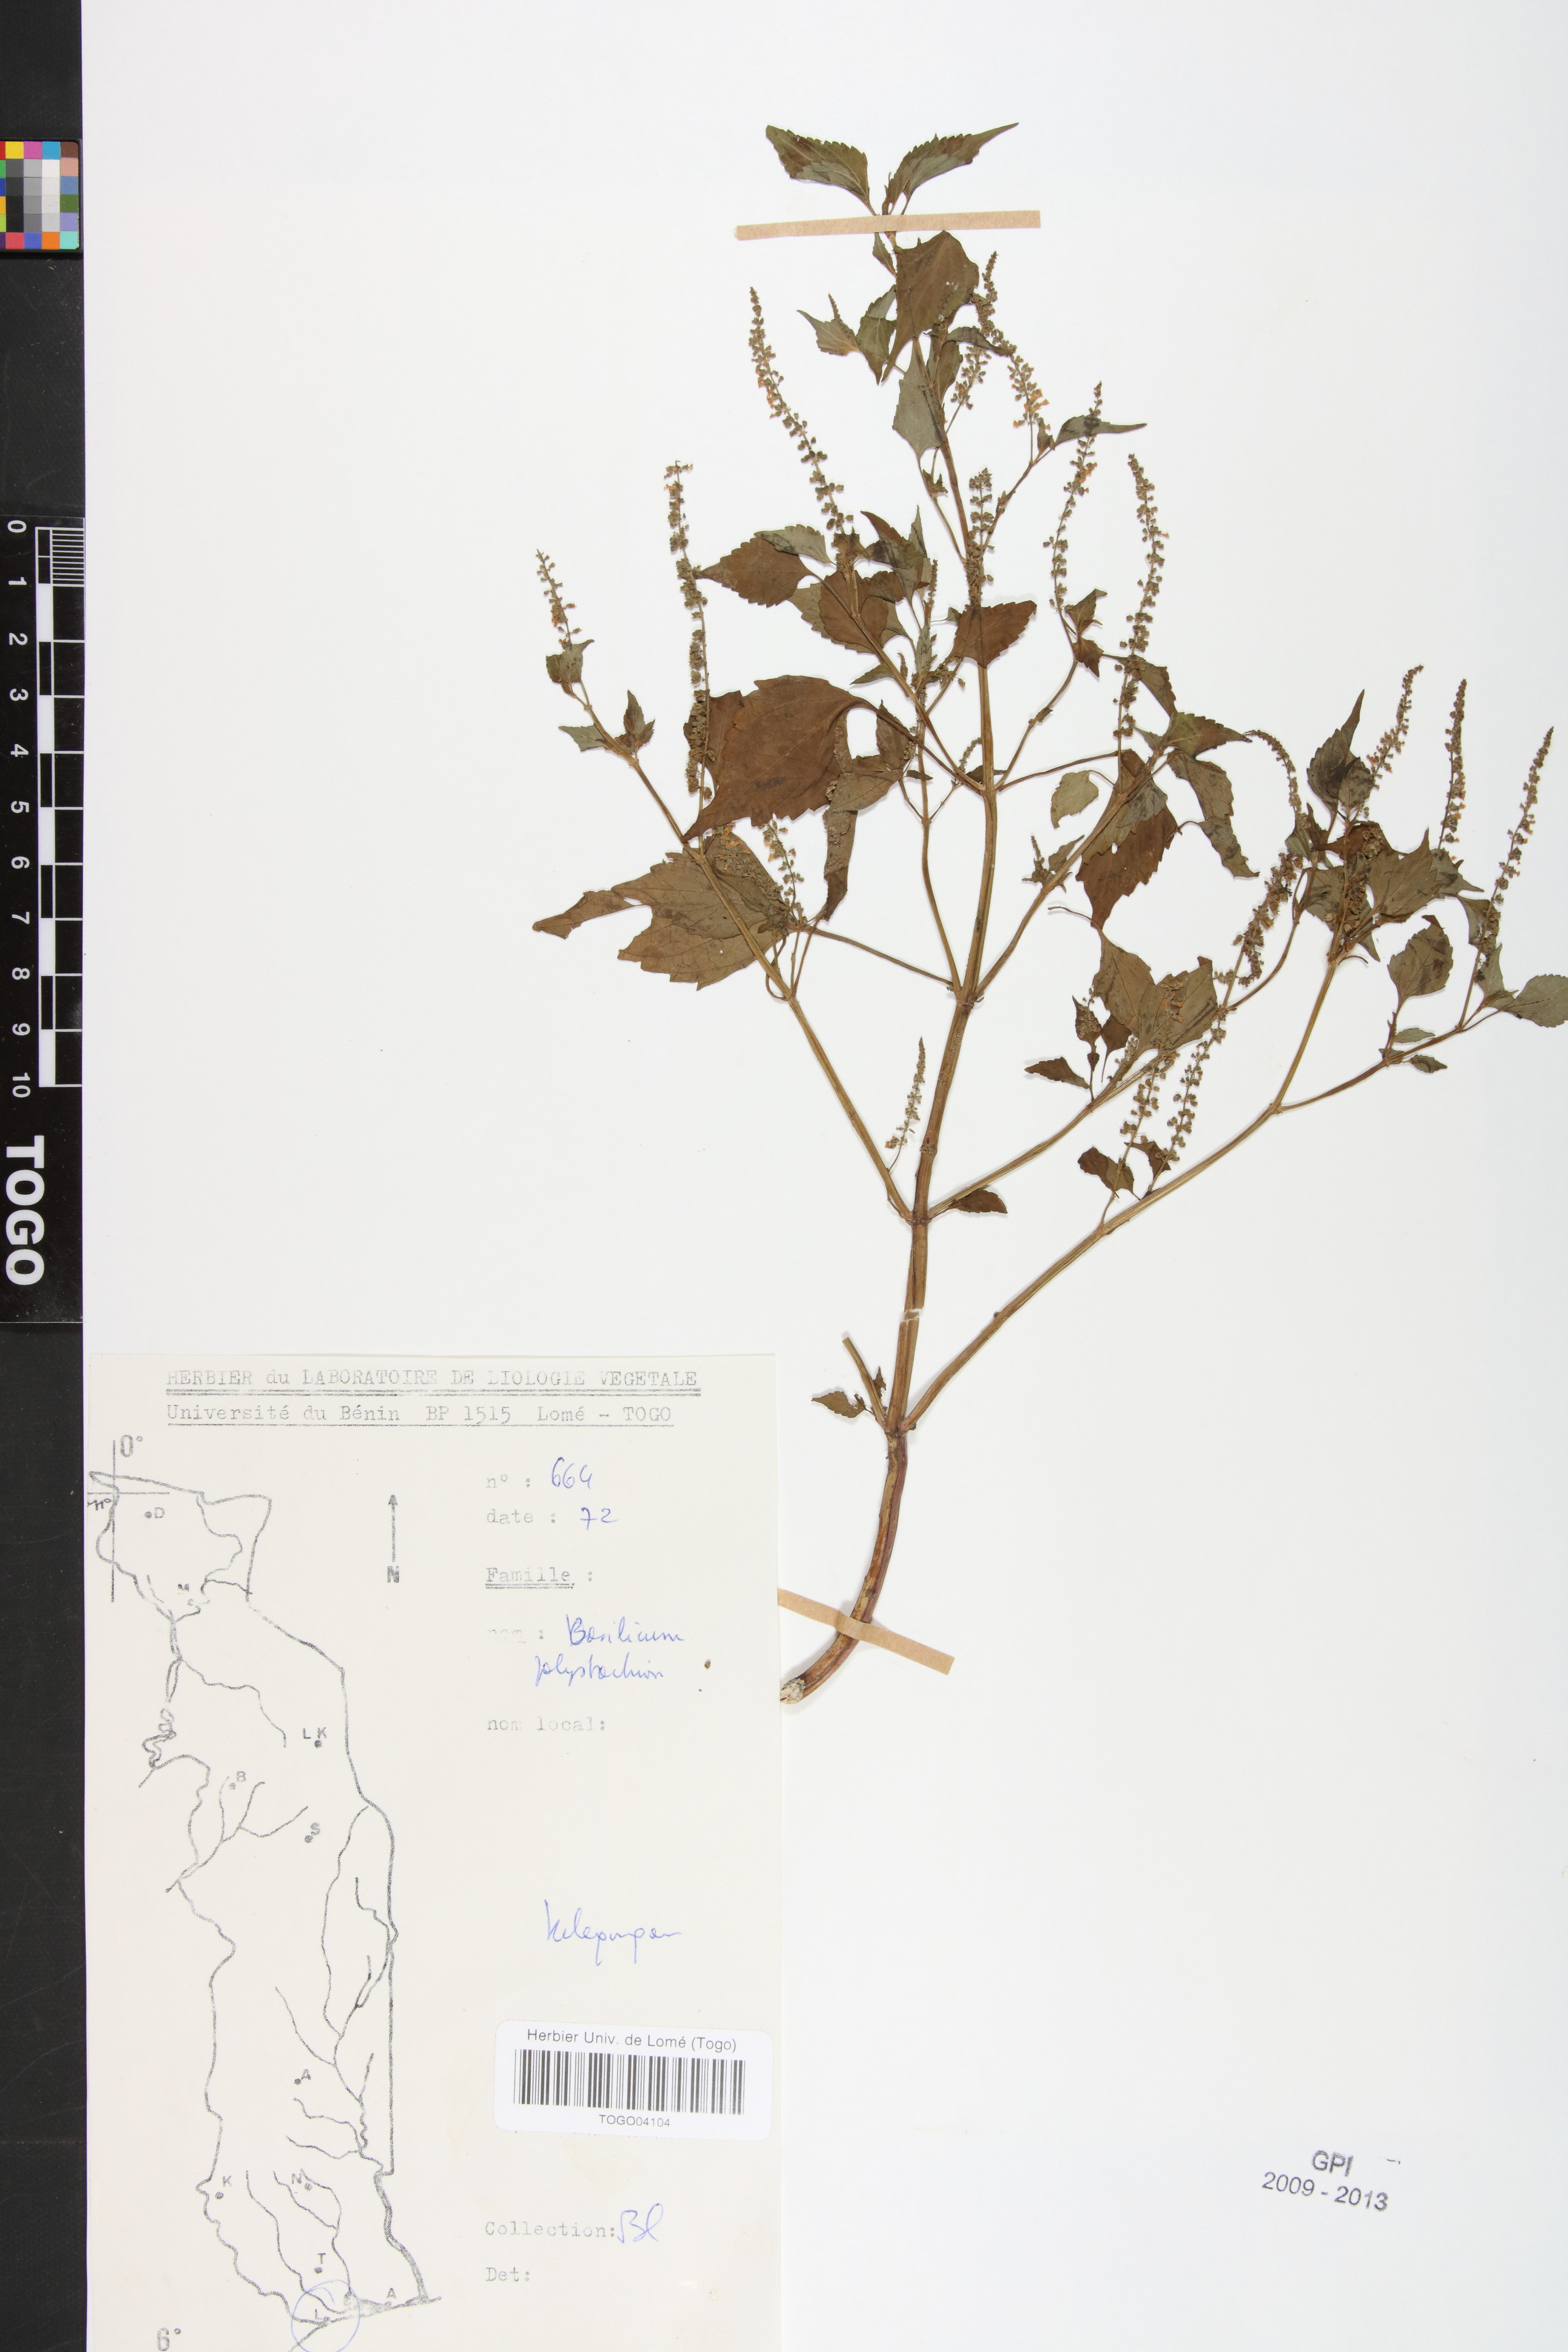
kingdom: Plantae
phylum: Tracheophyta
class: Magnoliopsida
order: Lamiales
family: Lamiaceae
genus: Basilicum
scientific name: Basilicum polystachyon
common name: Musk-basil
